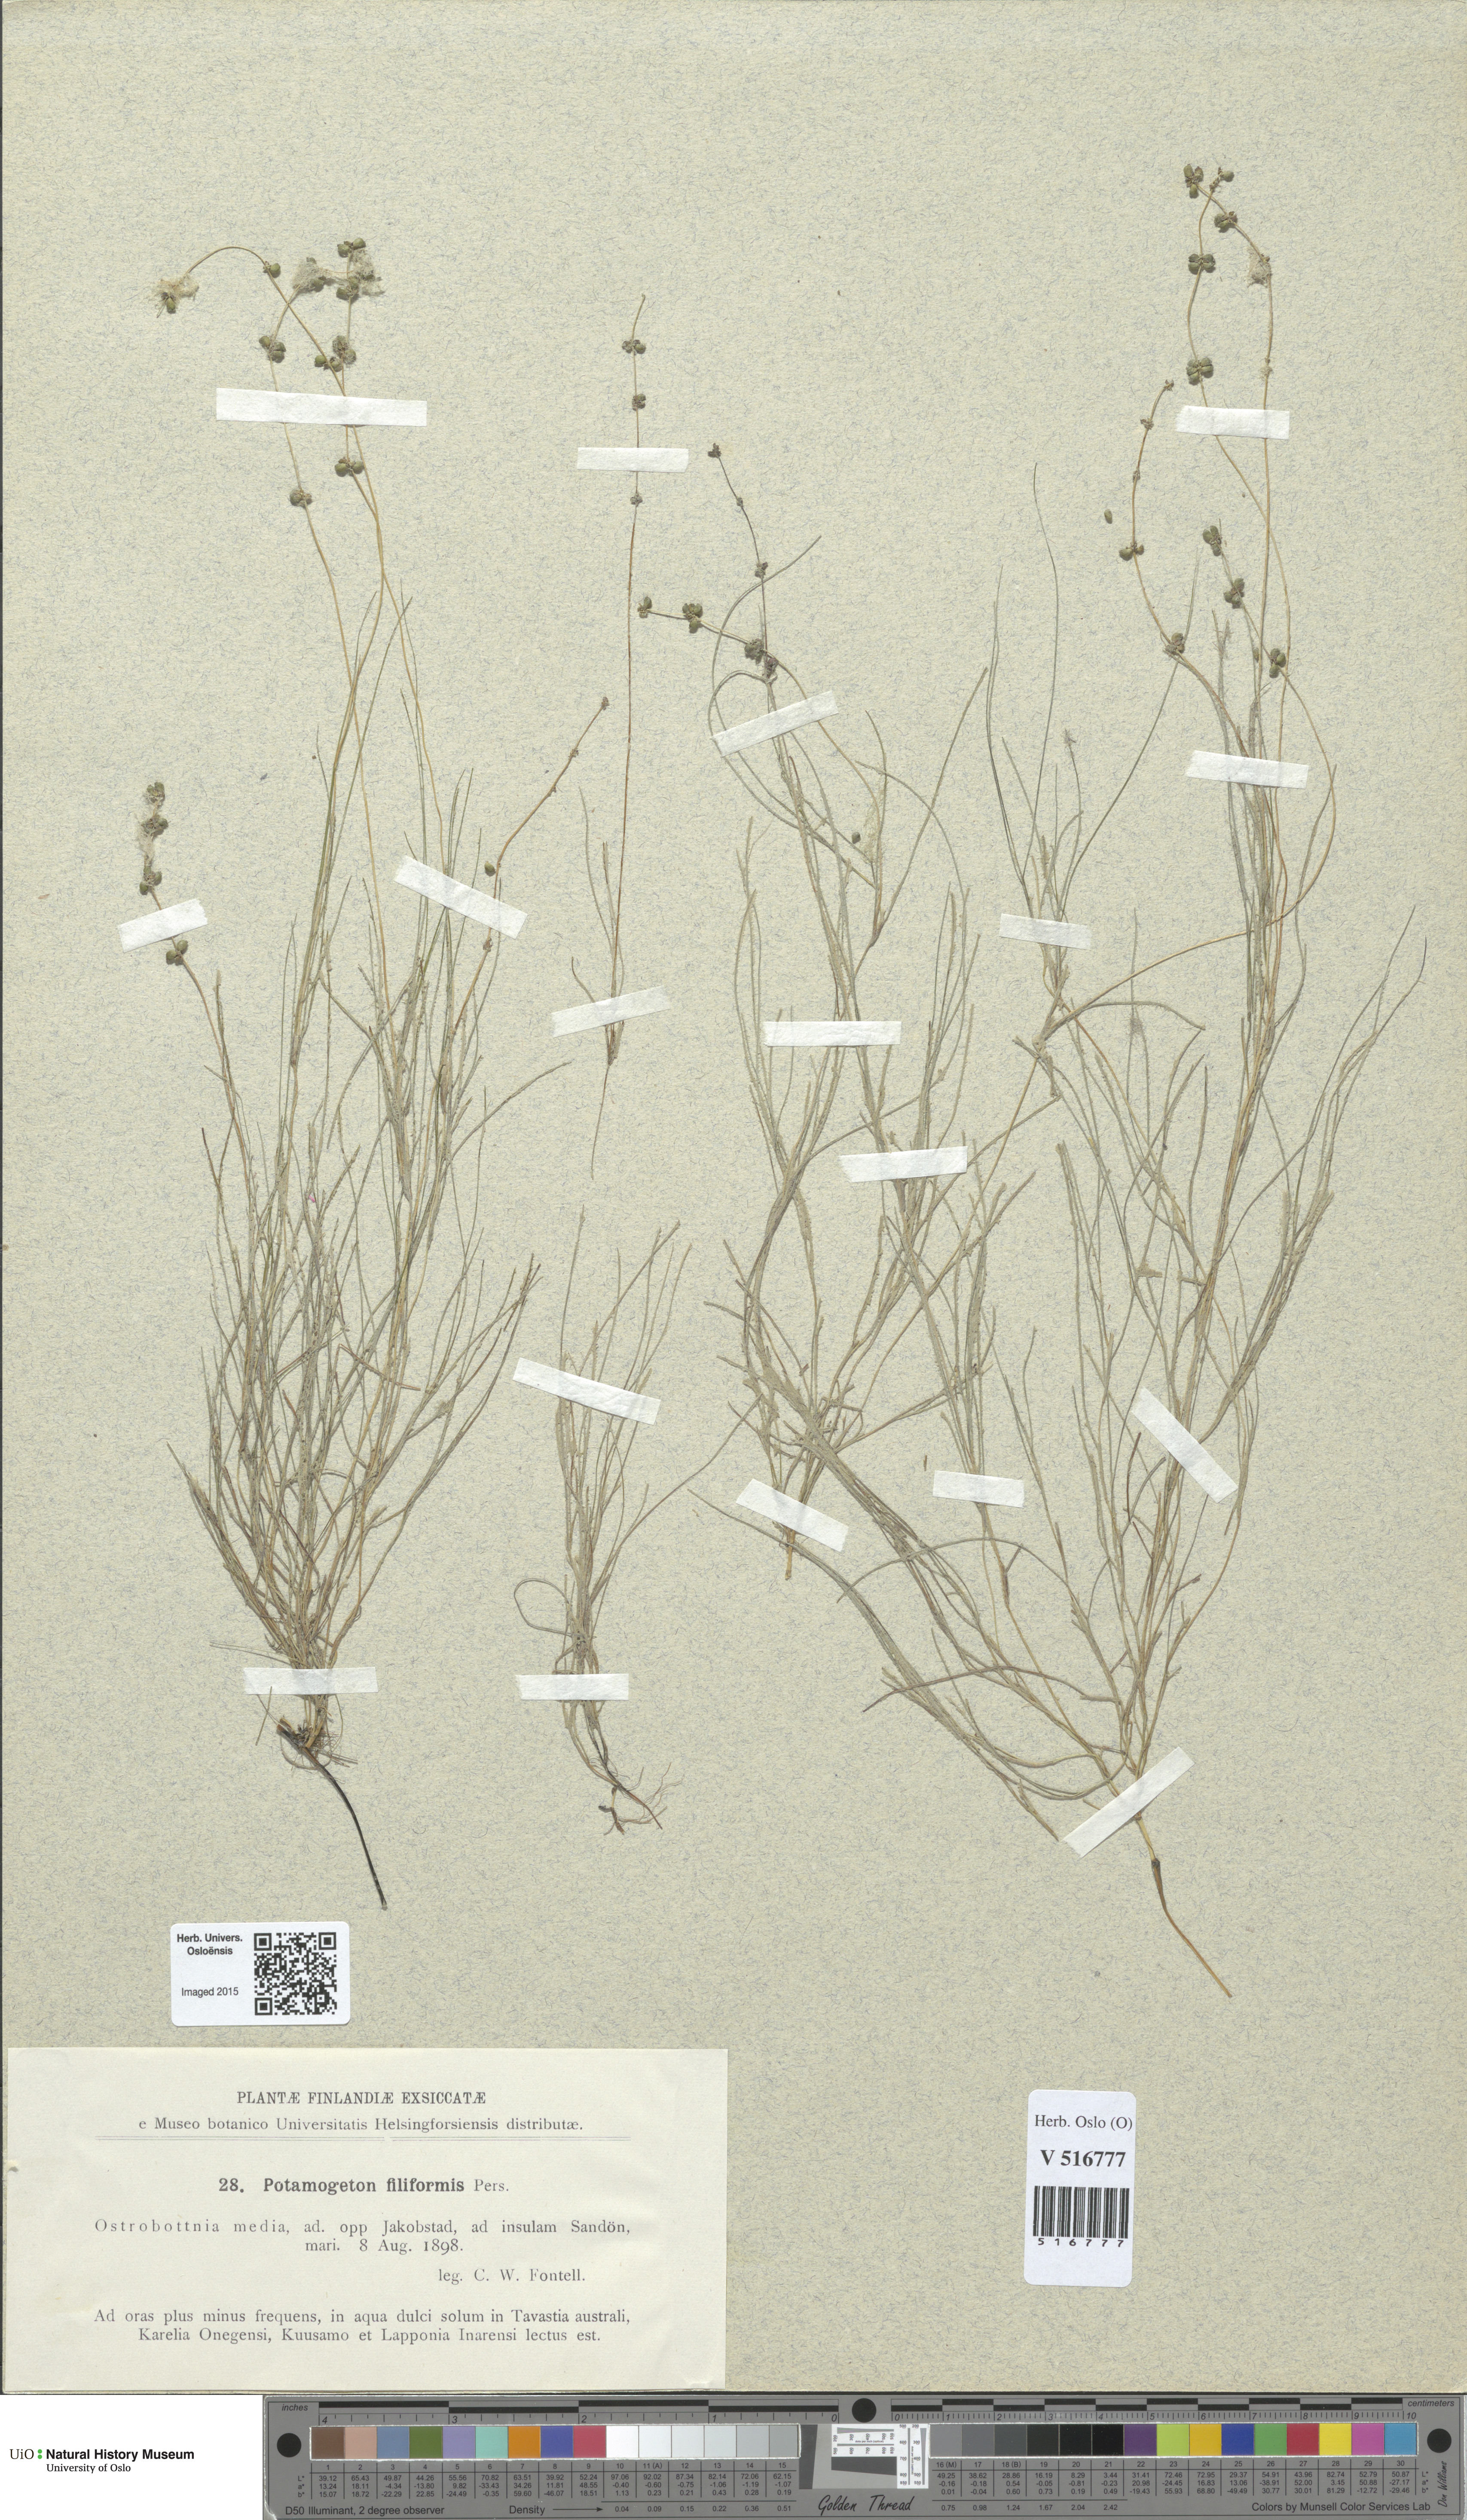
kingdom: Plantae
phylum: Tracheophyta
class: Liliopsida
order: Alismatales
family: Potamogetonaceae
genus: Stuckenia
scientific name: Stuckenia filiformis
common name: Alpine thread-leaved pondweed
